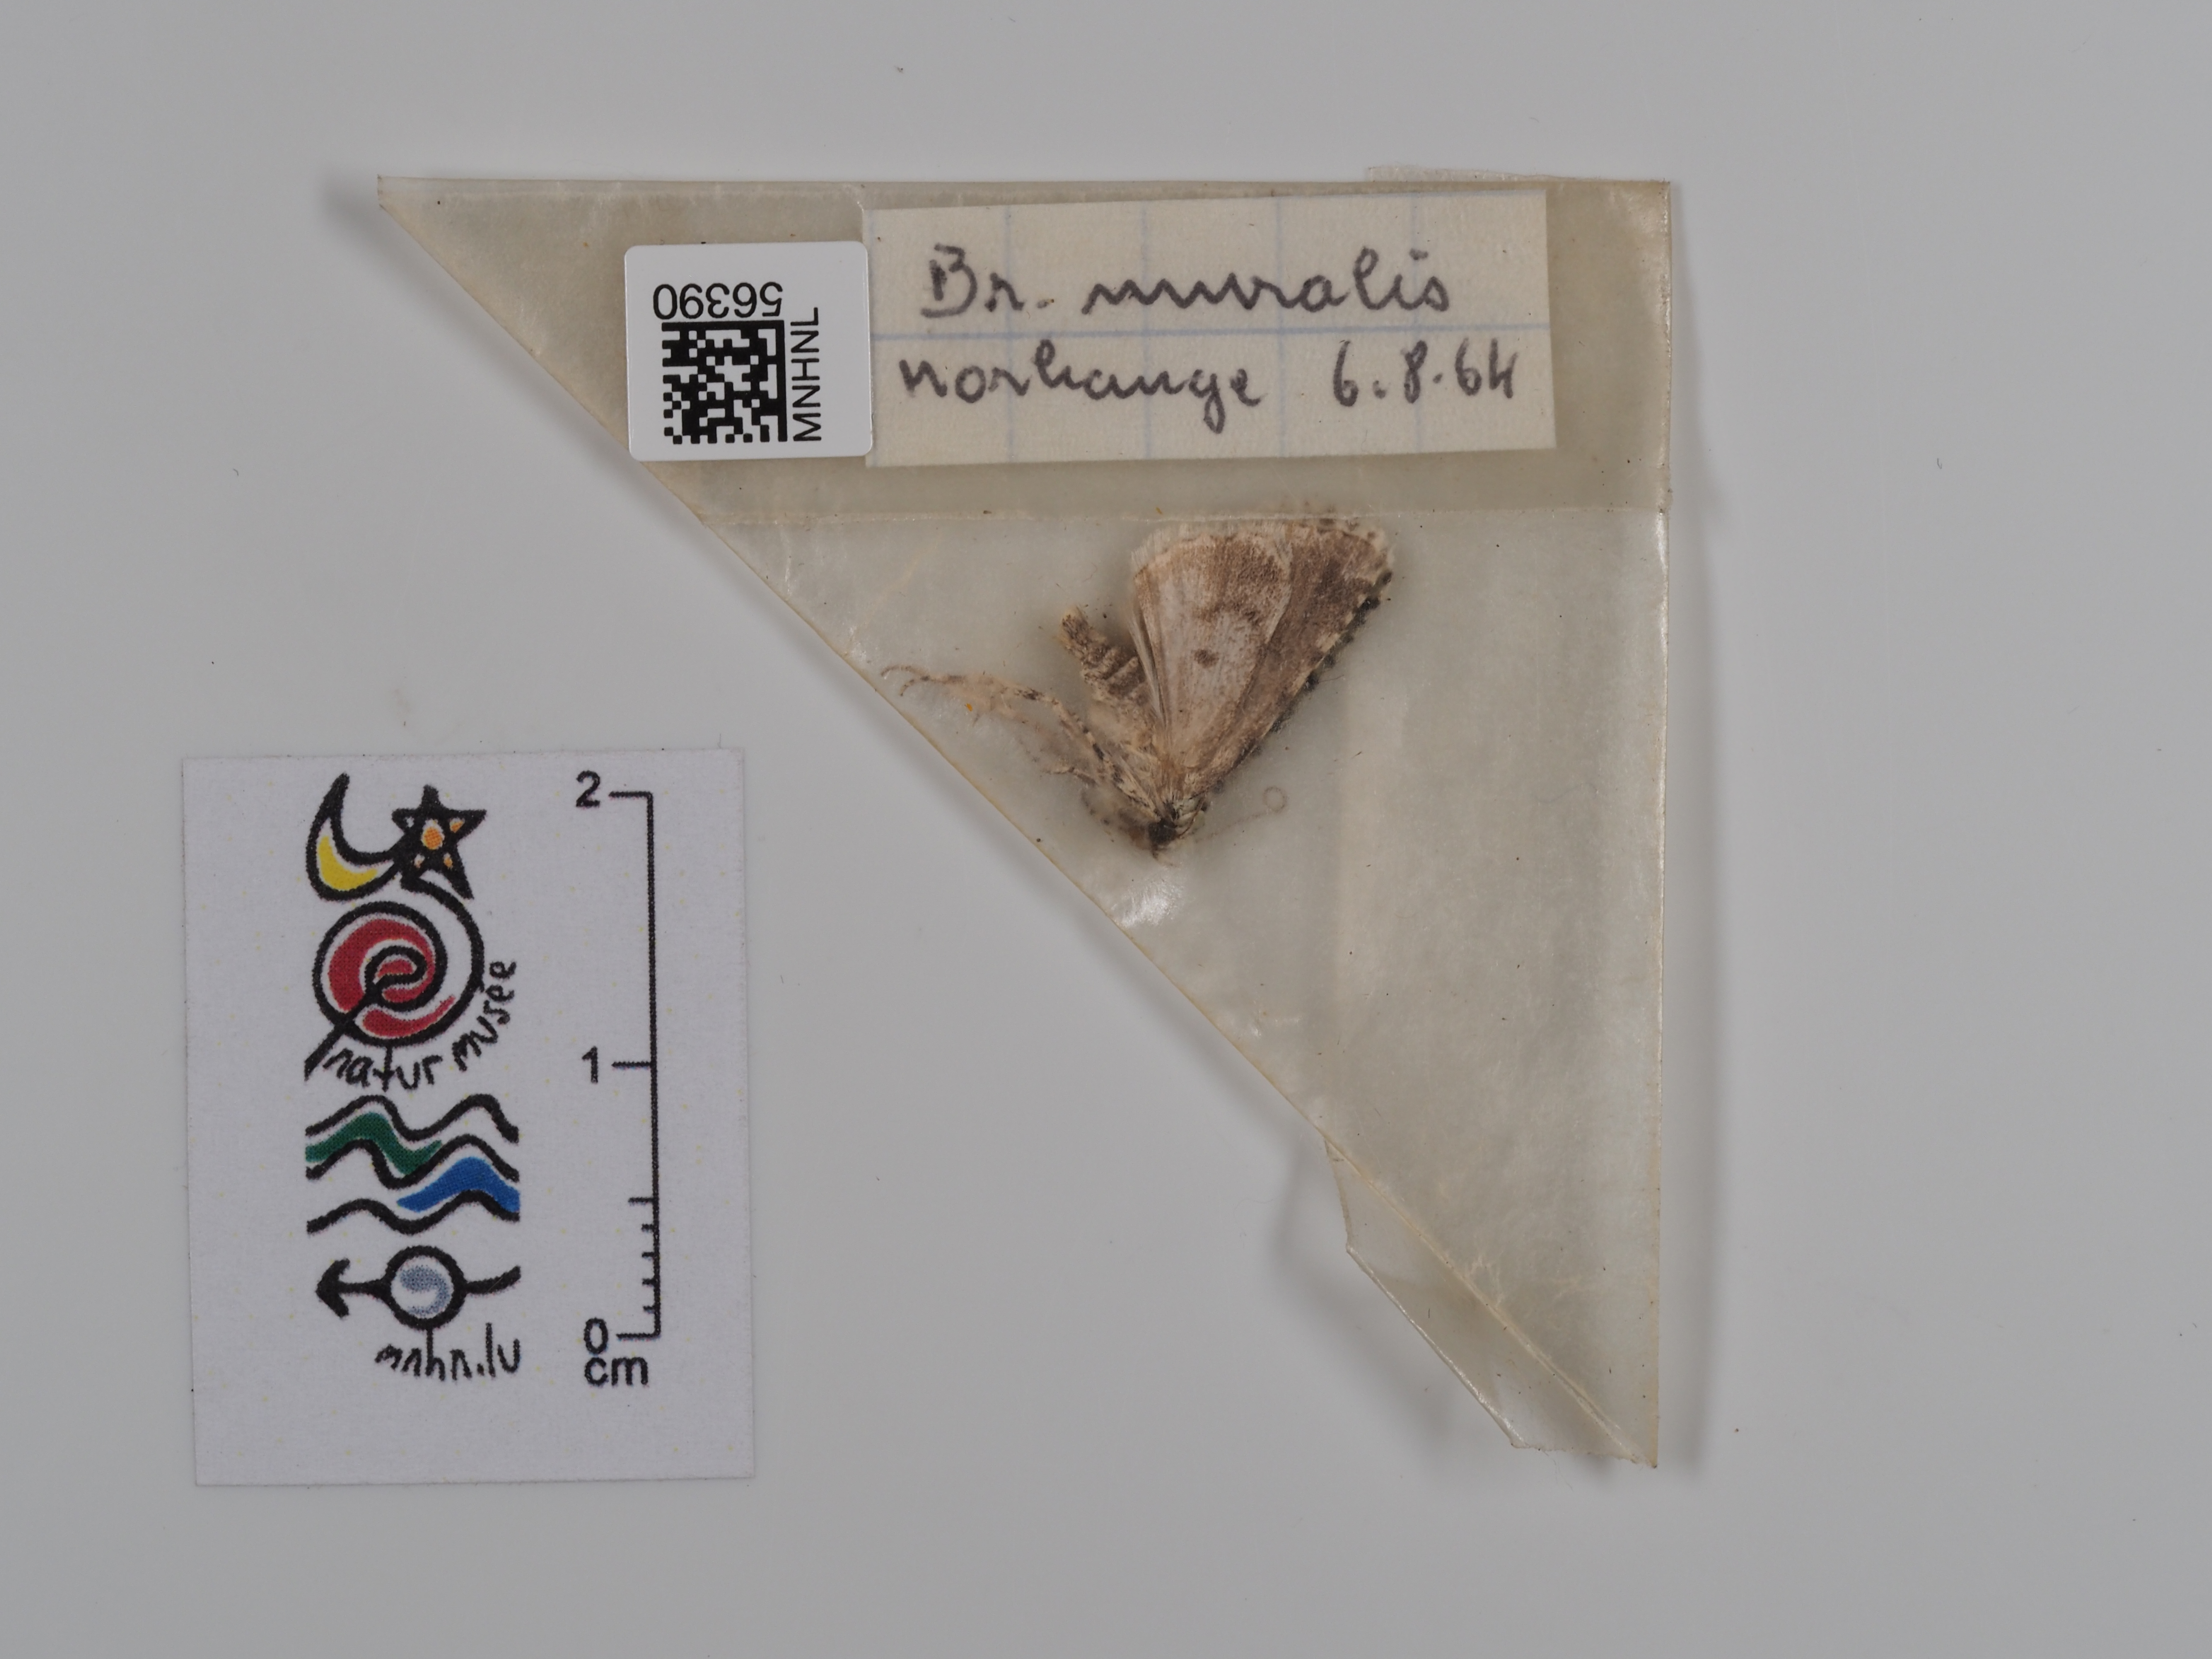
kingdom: Animalia
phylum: Arthropoda
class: Insecta
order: Lepidoptera
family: Noctuidae
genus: Nyctobrya
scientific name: Nyctobrya muralis
